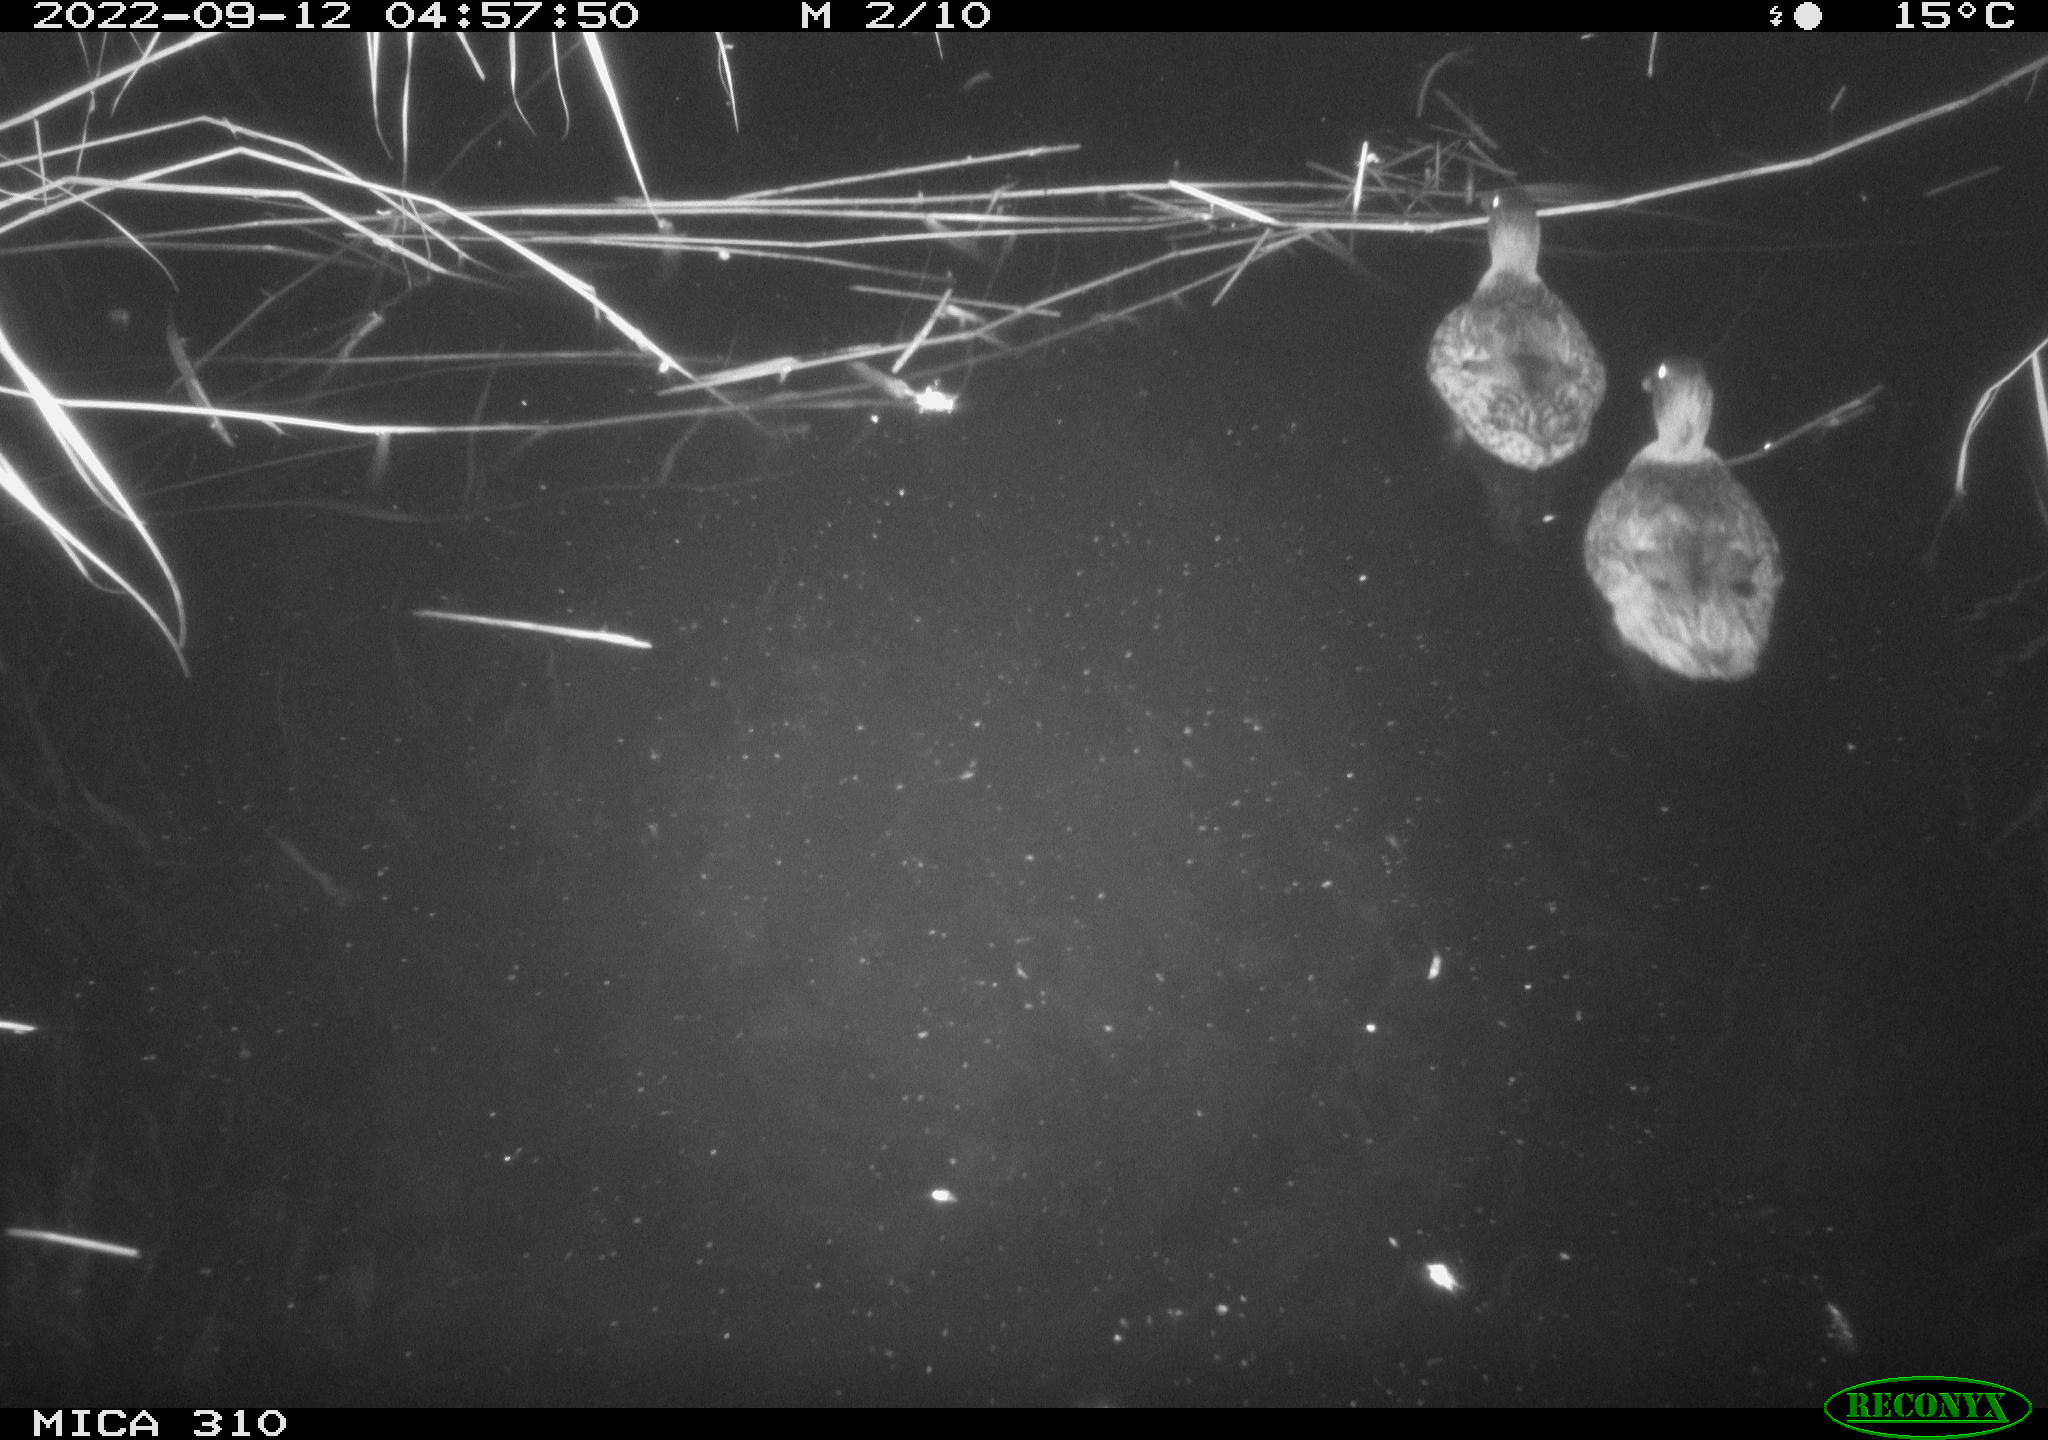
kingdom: Animalia
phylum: Chordata
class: Aves
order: Anseriformes
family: Anatidae
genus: Anas
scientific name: Anas
